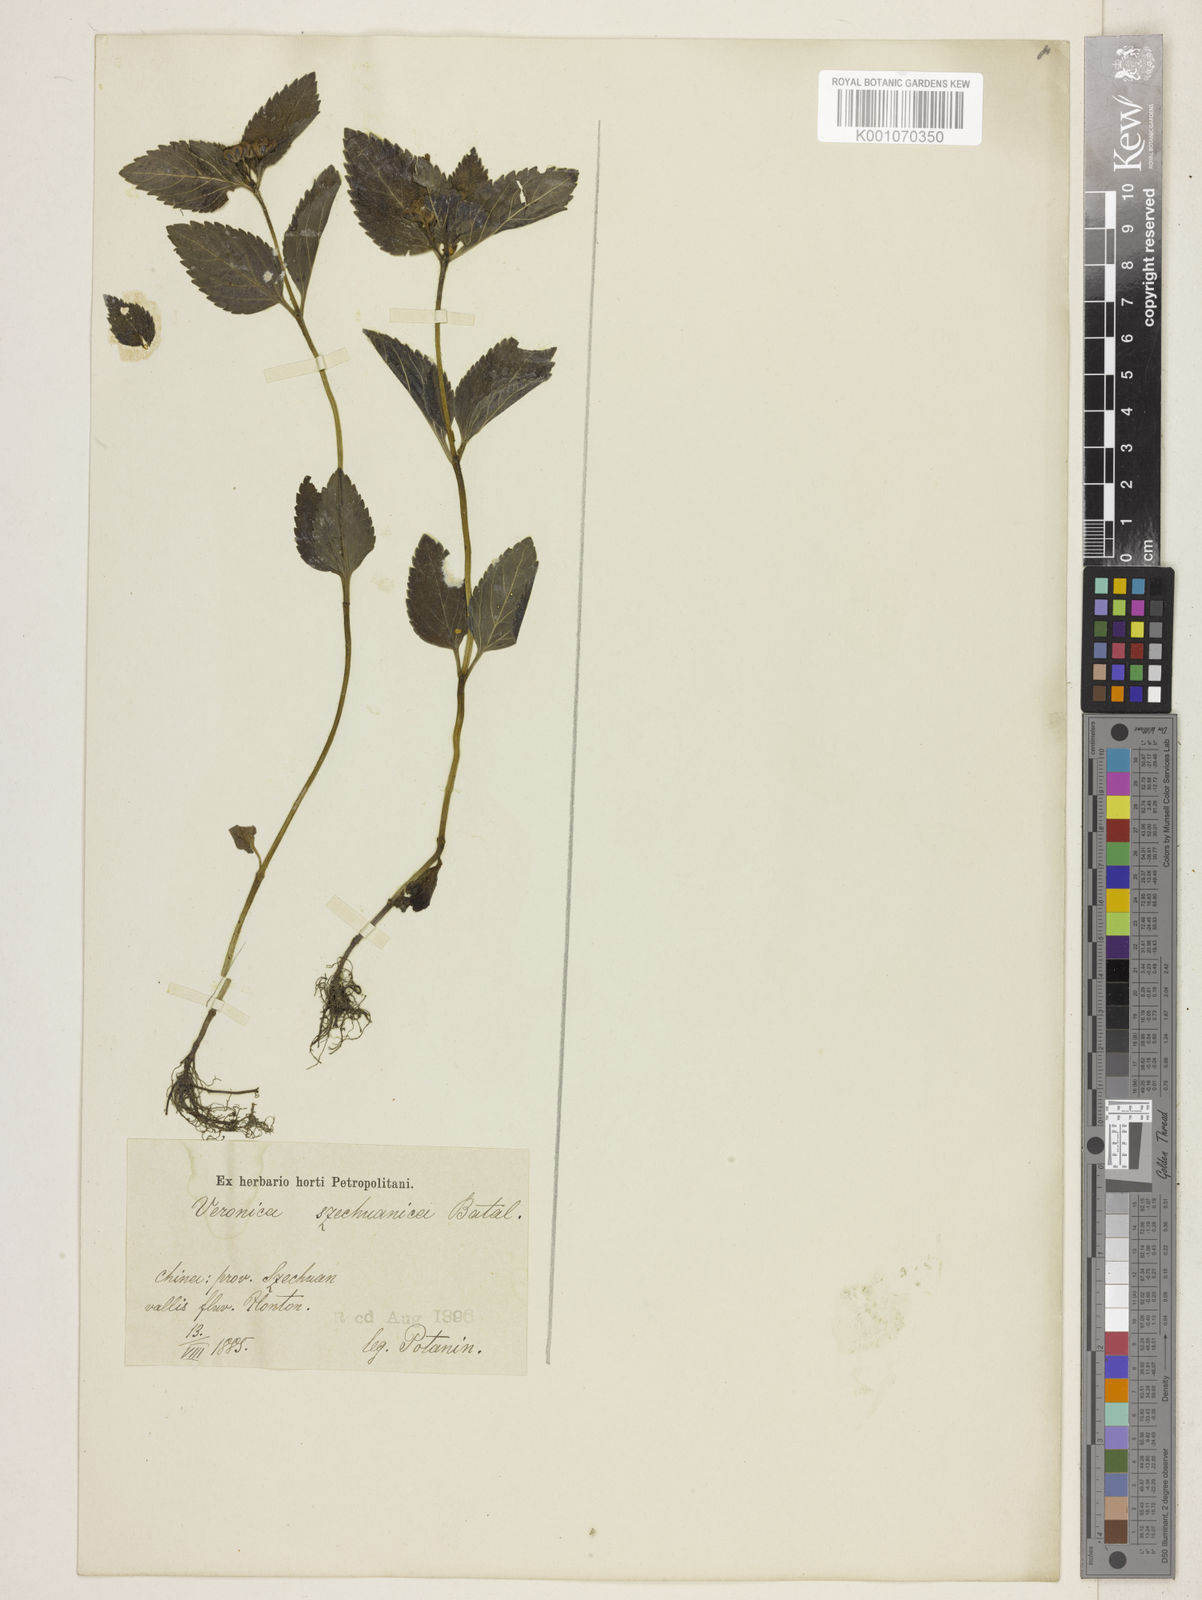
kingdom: Plantae
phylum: Tracheophyta
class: Magnoliopsida
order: Lamiales
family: Plantaginaceae
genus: Veronica
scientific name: Veronica szechuanica
